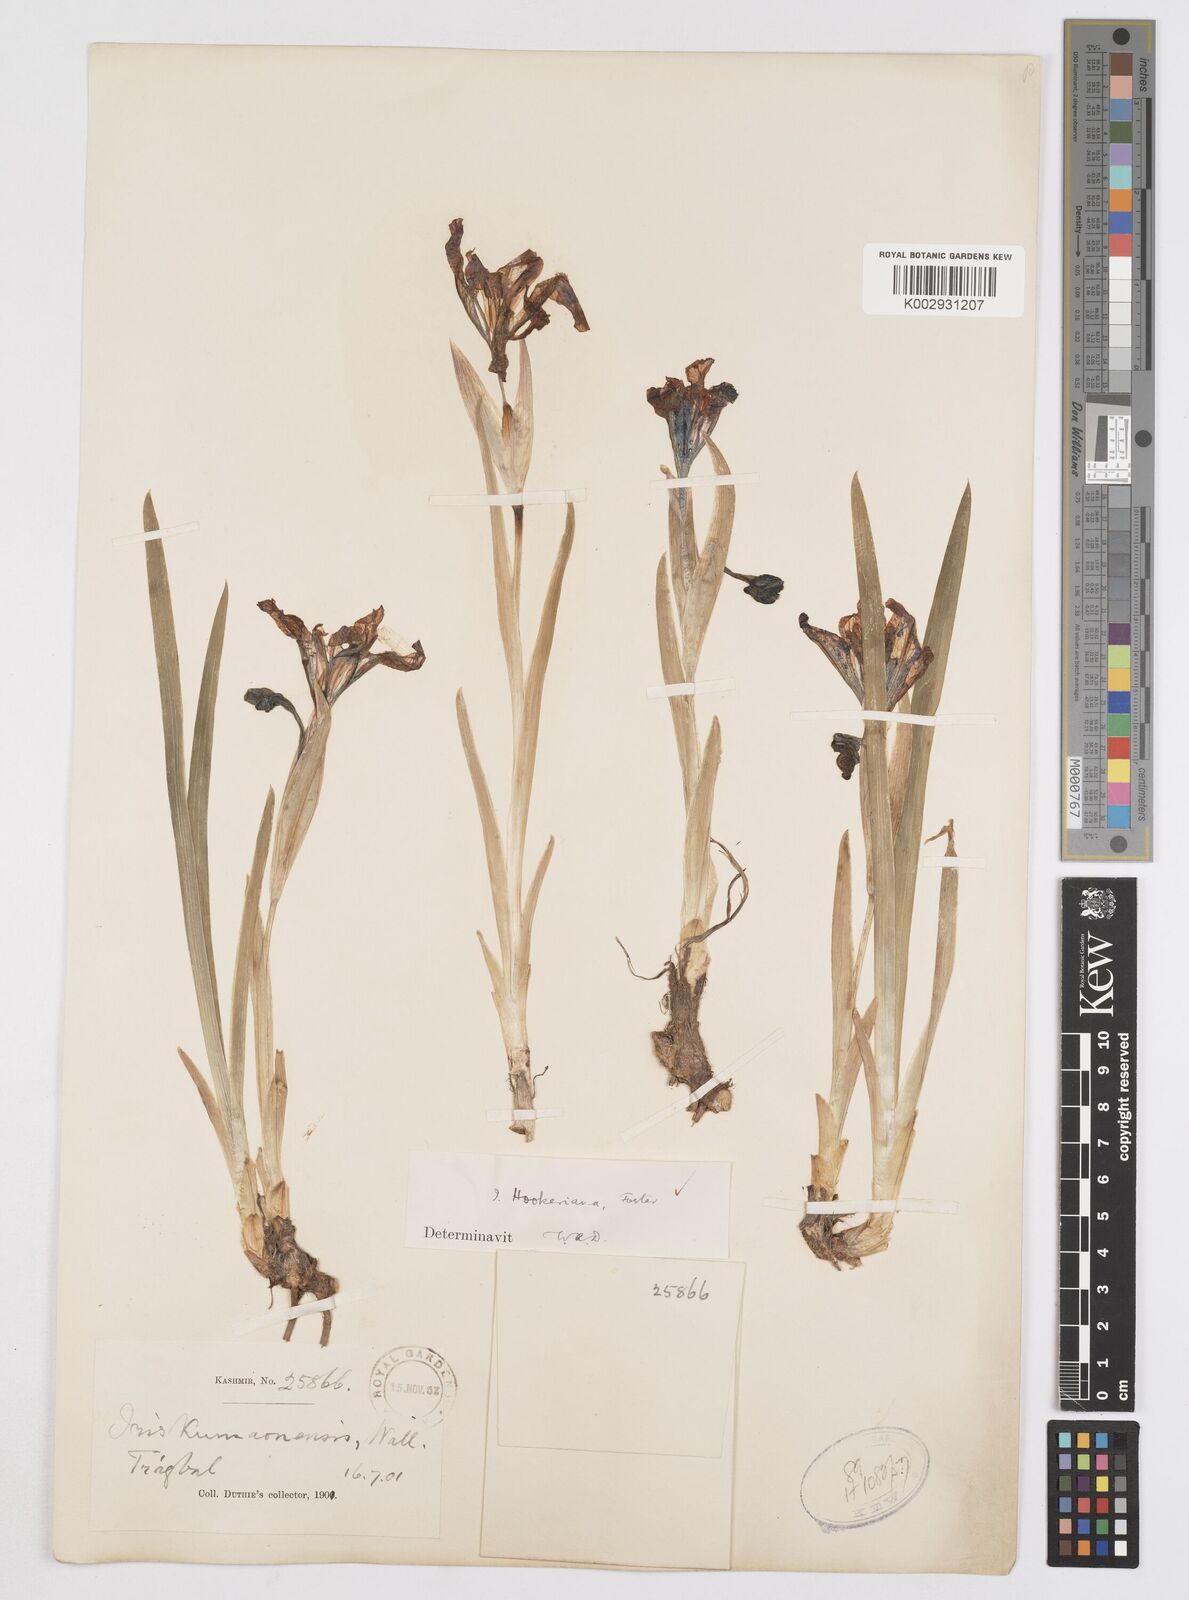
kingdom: Plantae
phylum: Tracheophyta
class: Liliopsida
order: Asparagales
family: Iridaceae
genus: Iris
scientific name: Iris hookeriana
